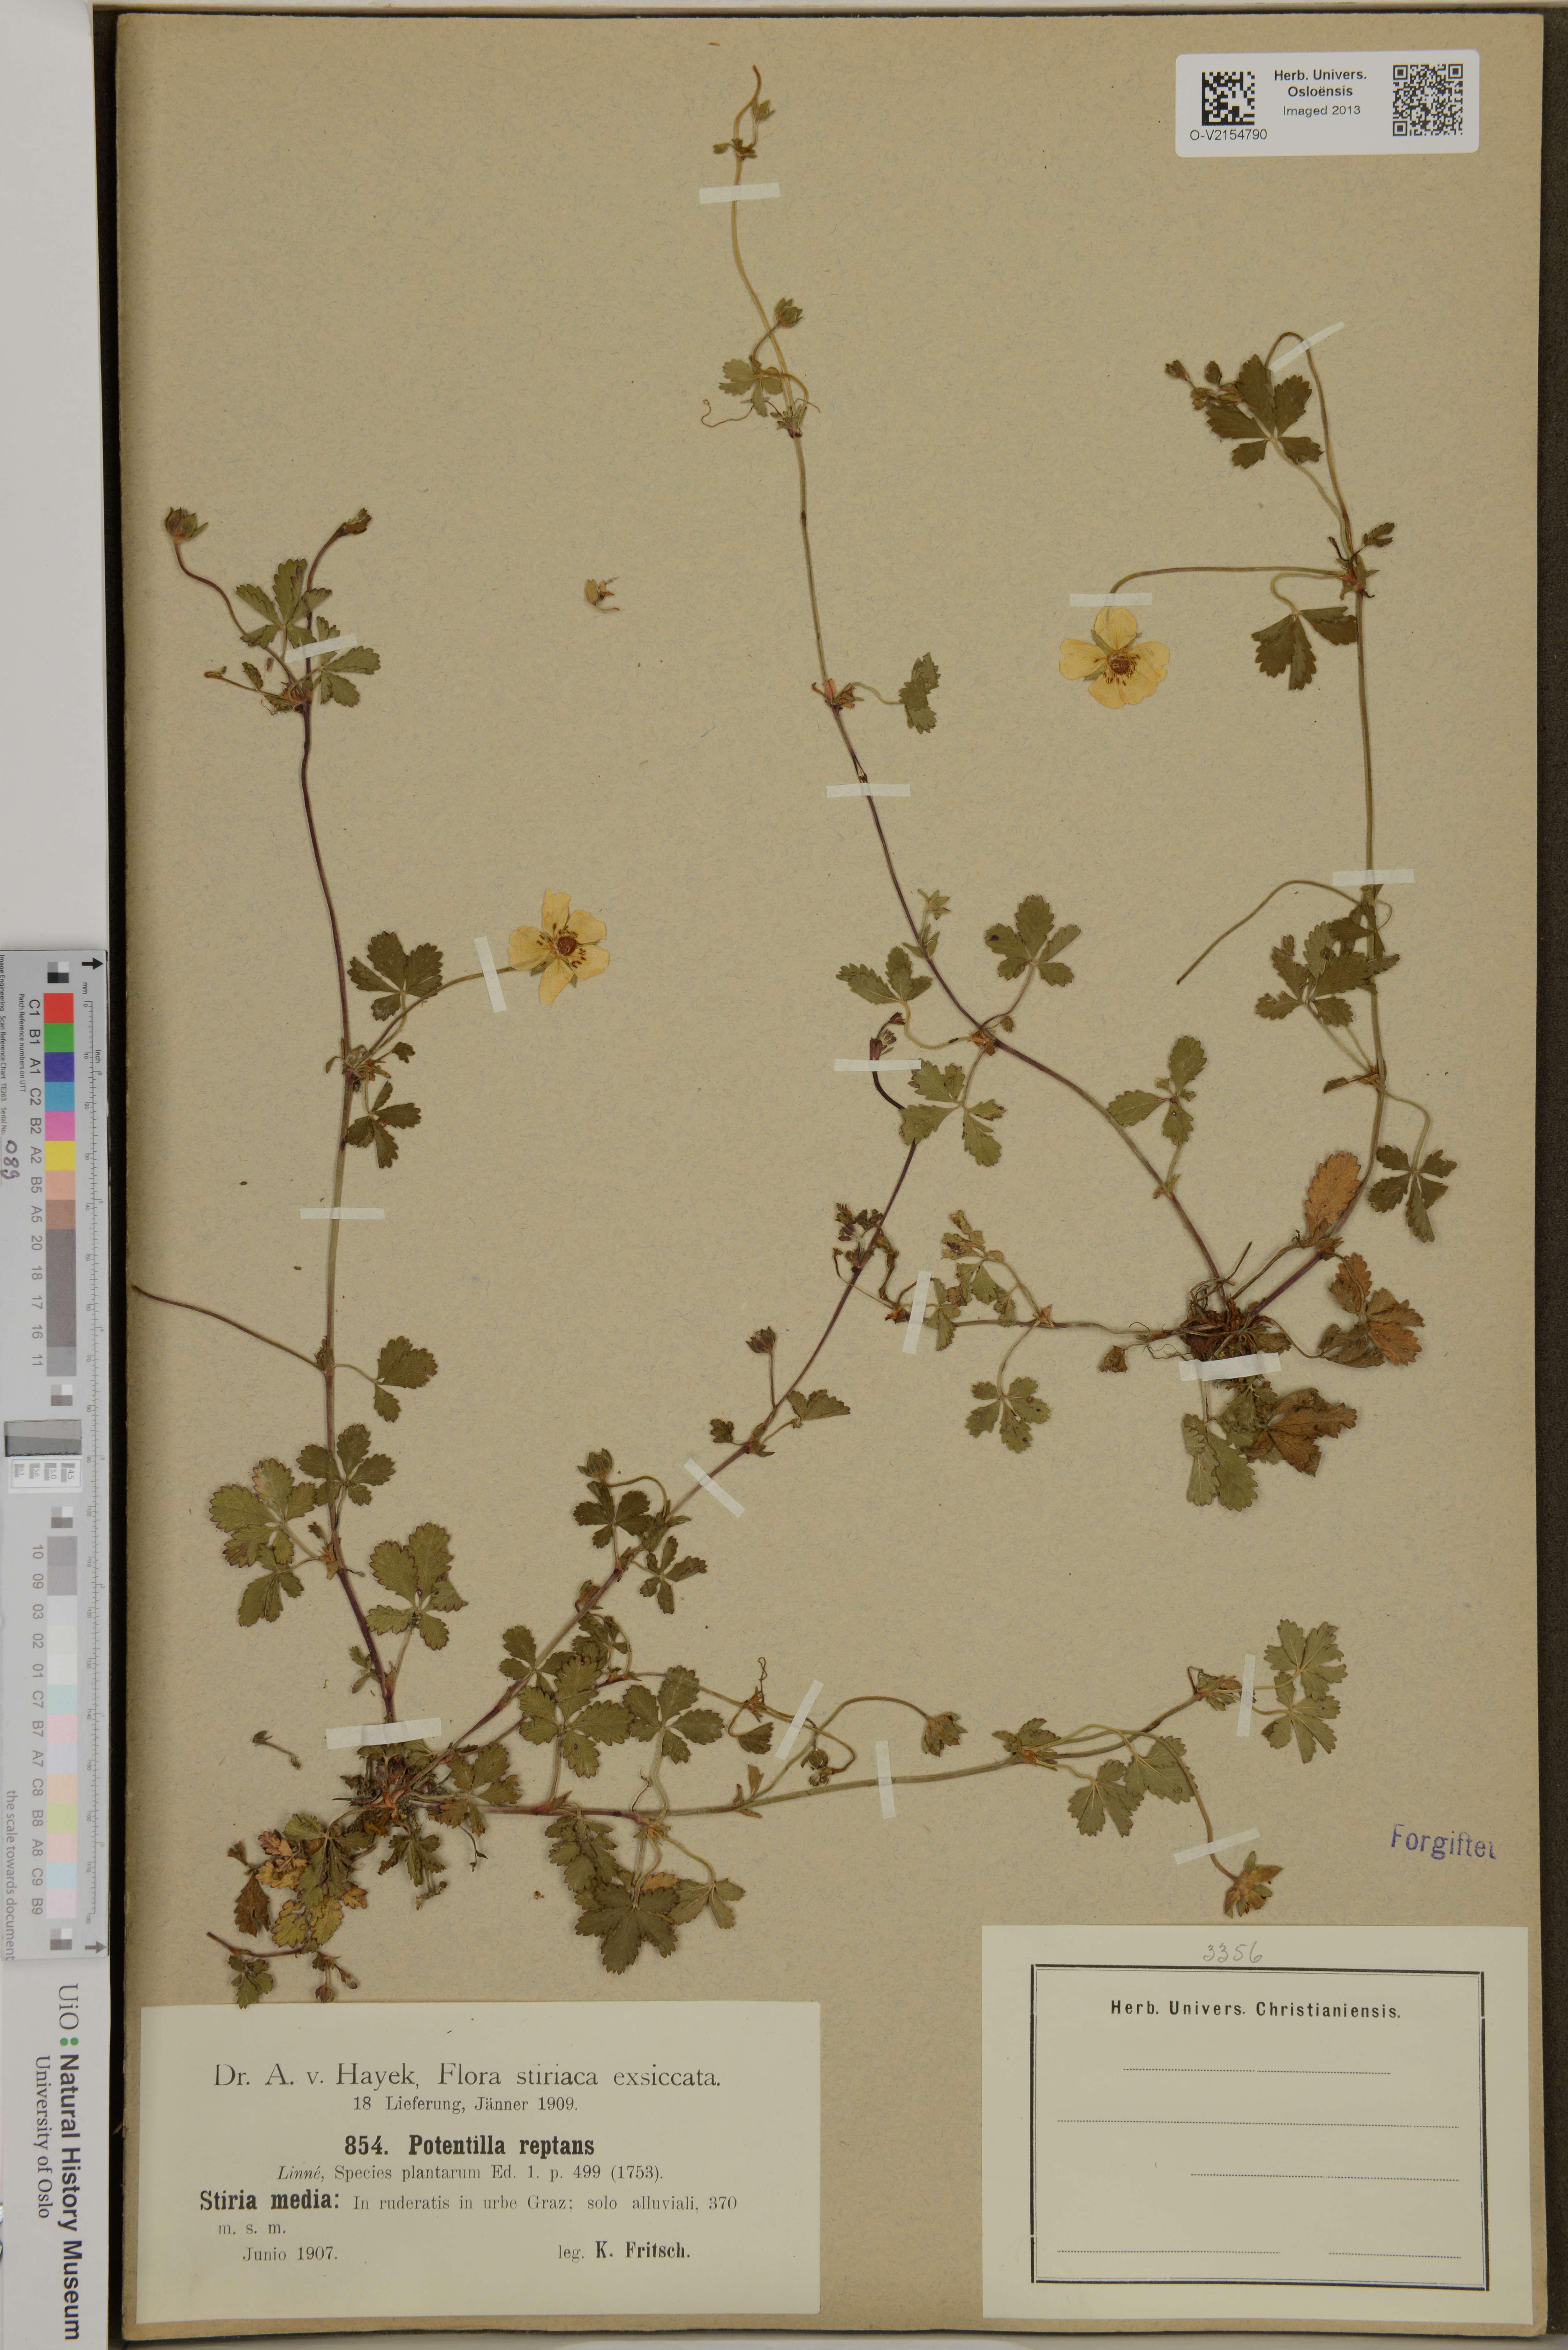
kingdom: Plantae
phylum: Tracheophyta
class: Magnoliopsida
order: Rosales
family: Rosaceae
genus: Potentilla
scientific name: Potentilla reptans
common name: Creeping cinquefoil
